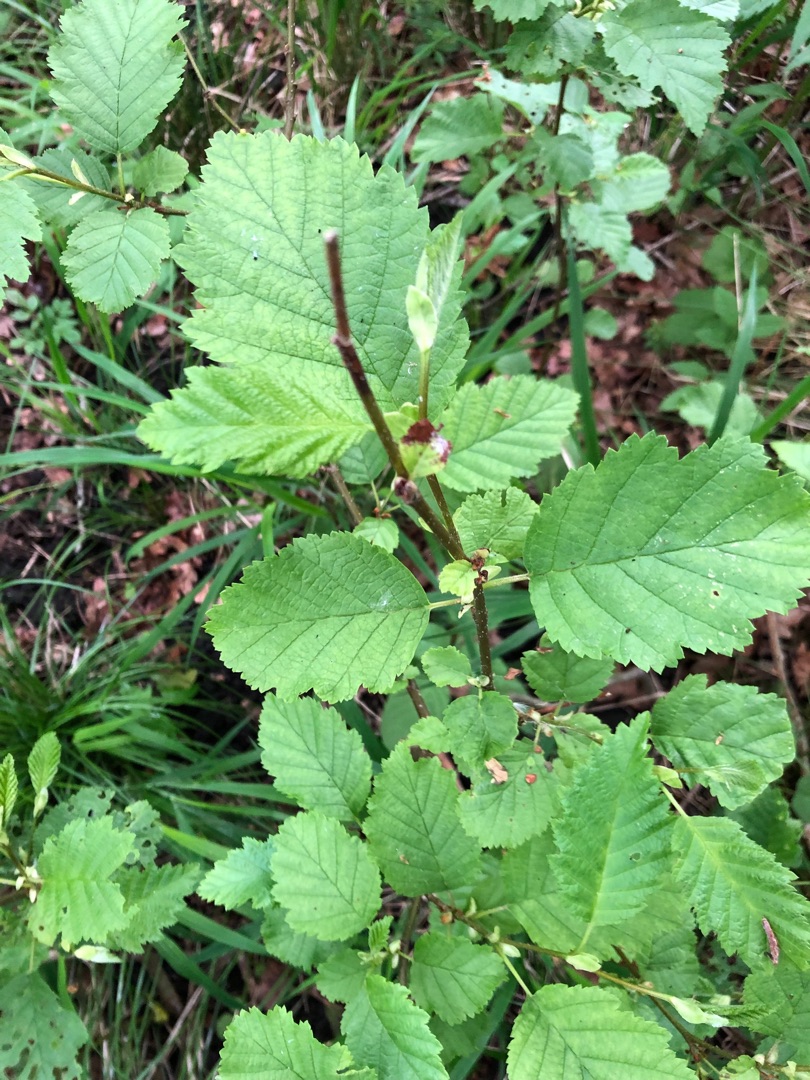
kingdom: Plantae
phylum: Tracheophyta
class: Magnoliopsida
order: Fagales
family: Betulaceae
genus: Alnus
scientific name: Alnus incana
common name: Grå-el/hvid-el
